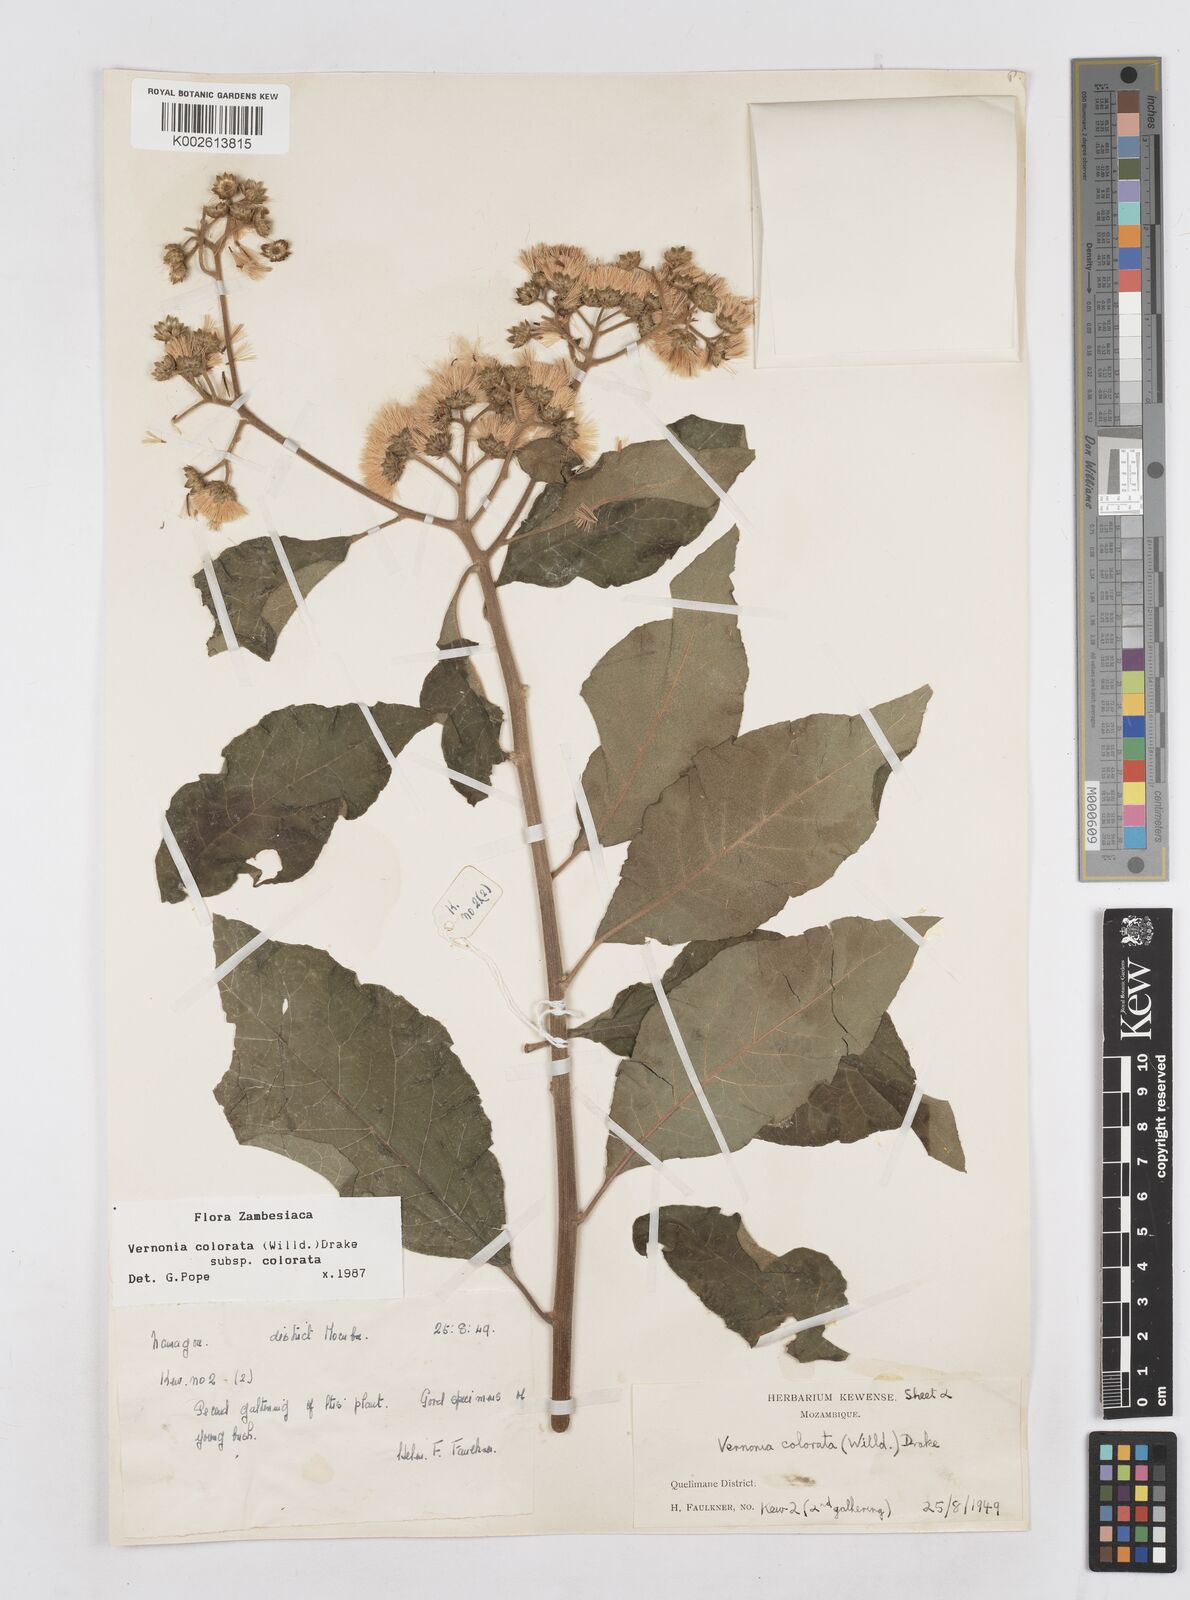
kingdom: Plantae
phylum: Tracheophyta
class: Magnoliopsida
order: Asterales
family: Asteraceae
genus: Vernonia
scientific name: Vernonia colorata
